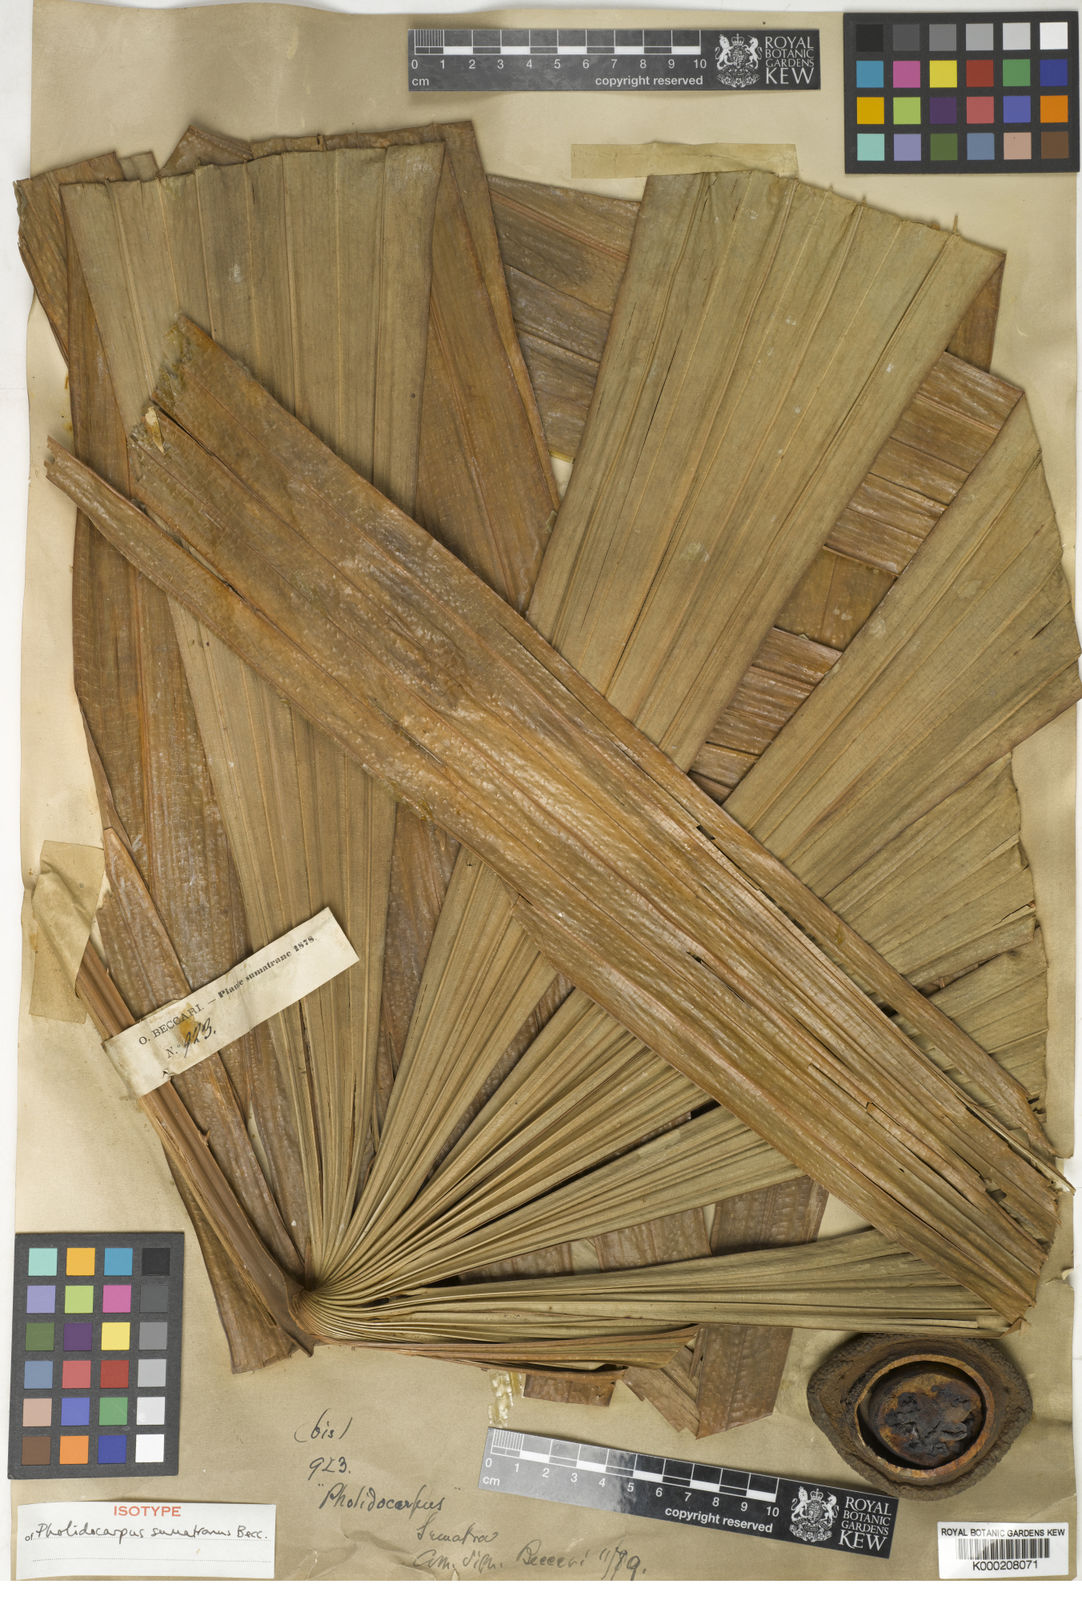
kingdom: Plantae
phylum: Tracheophyta
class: Liliopsida
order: Arecales
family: Arecaceae
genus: Pholidocarpus
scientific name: Pholidocarpus sumatranus
